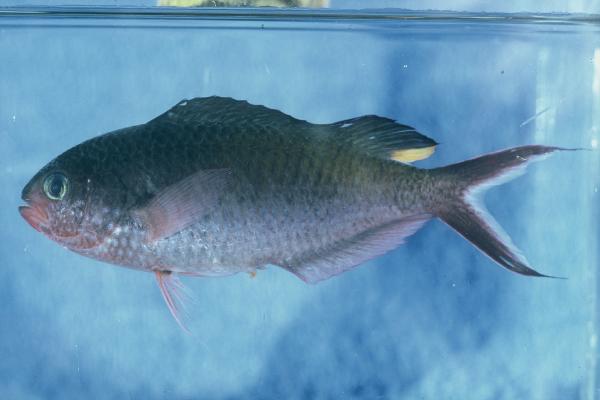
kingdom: Animalia
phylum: Chordata
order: Perciformes
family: Pomacentridae
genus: Lepidozygus
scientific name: Lepidozygus tapeinosoma
